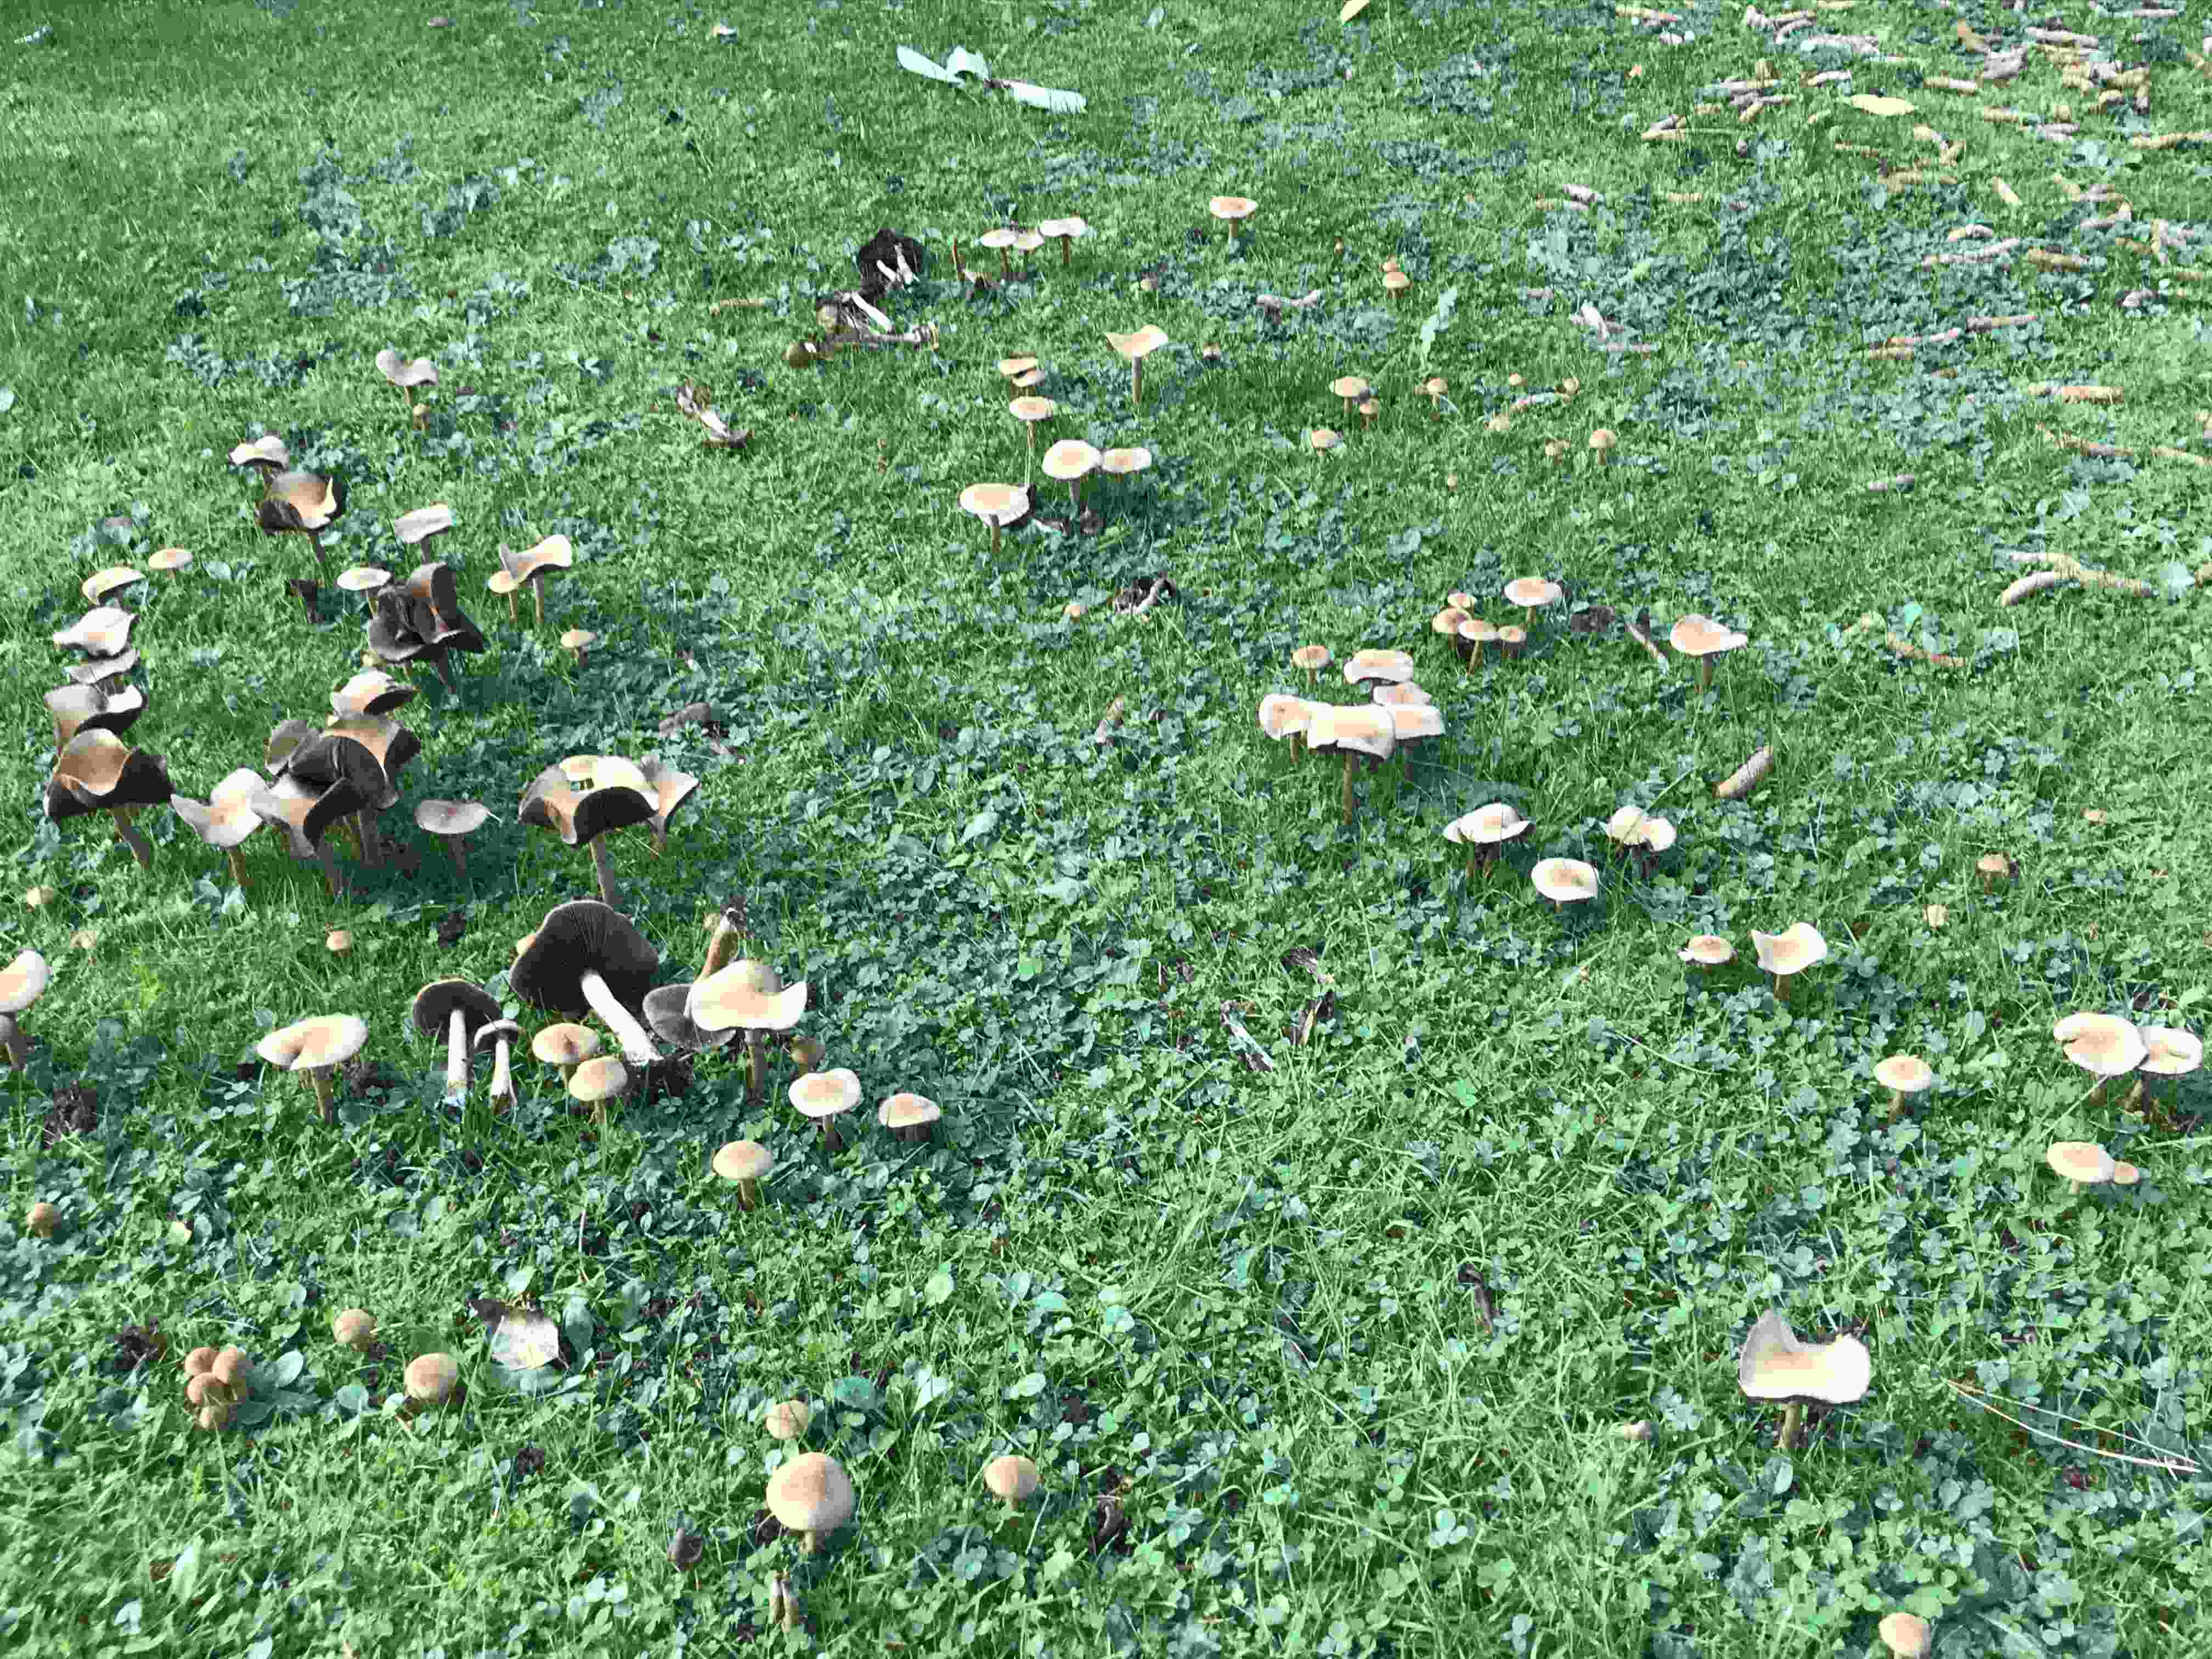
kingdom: Fungi
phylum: Basidiomycota
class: Agaricomycetes
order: Agaricales
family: Psathyrellaceae
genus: Lacrymaria
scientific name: Lacrymaria lacrymabunda
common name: grædende mørkhat
